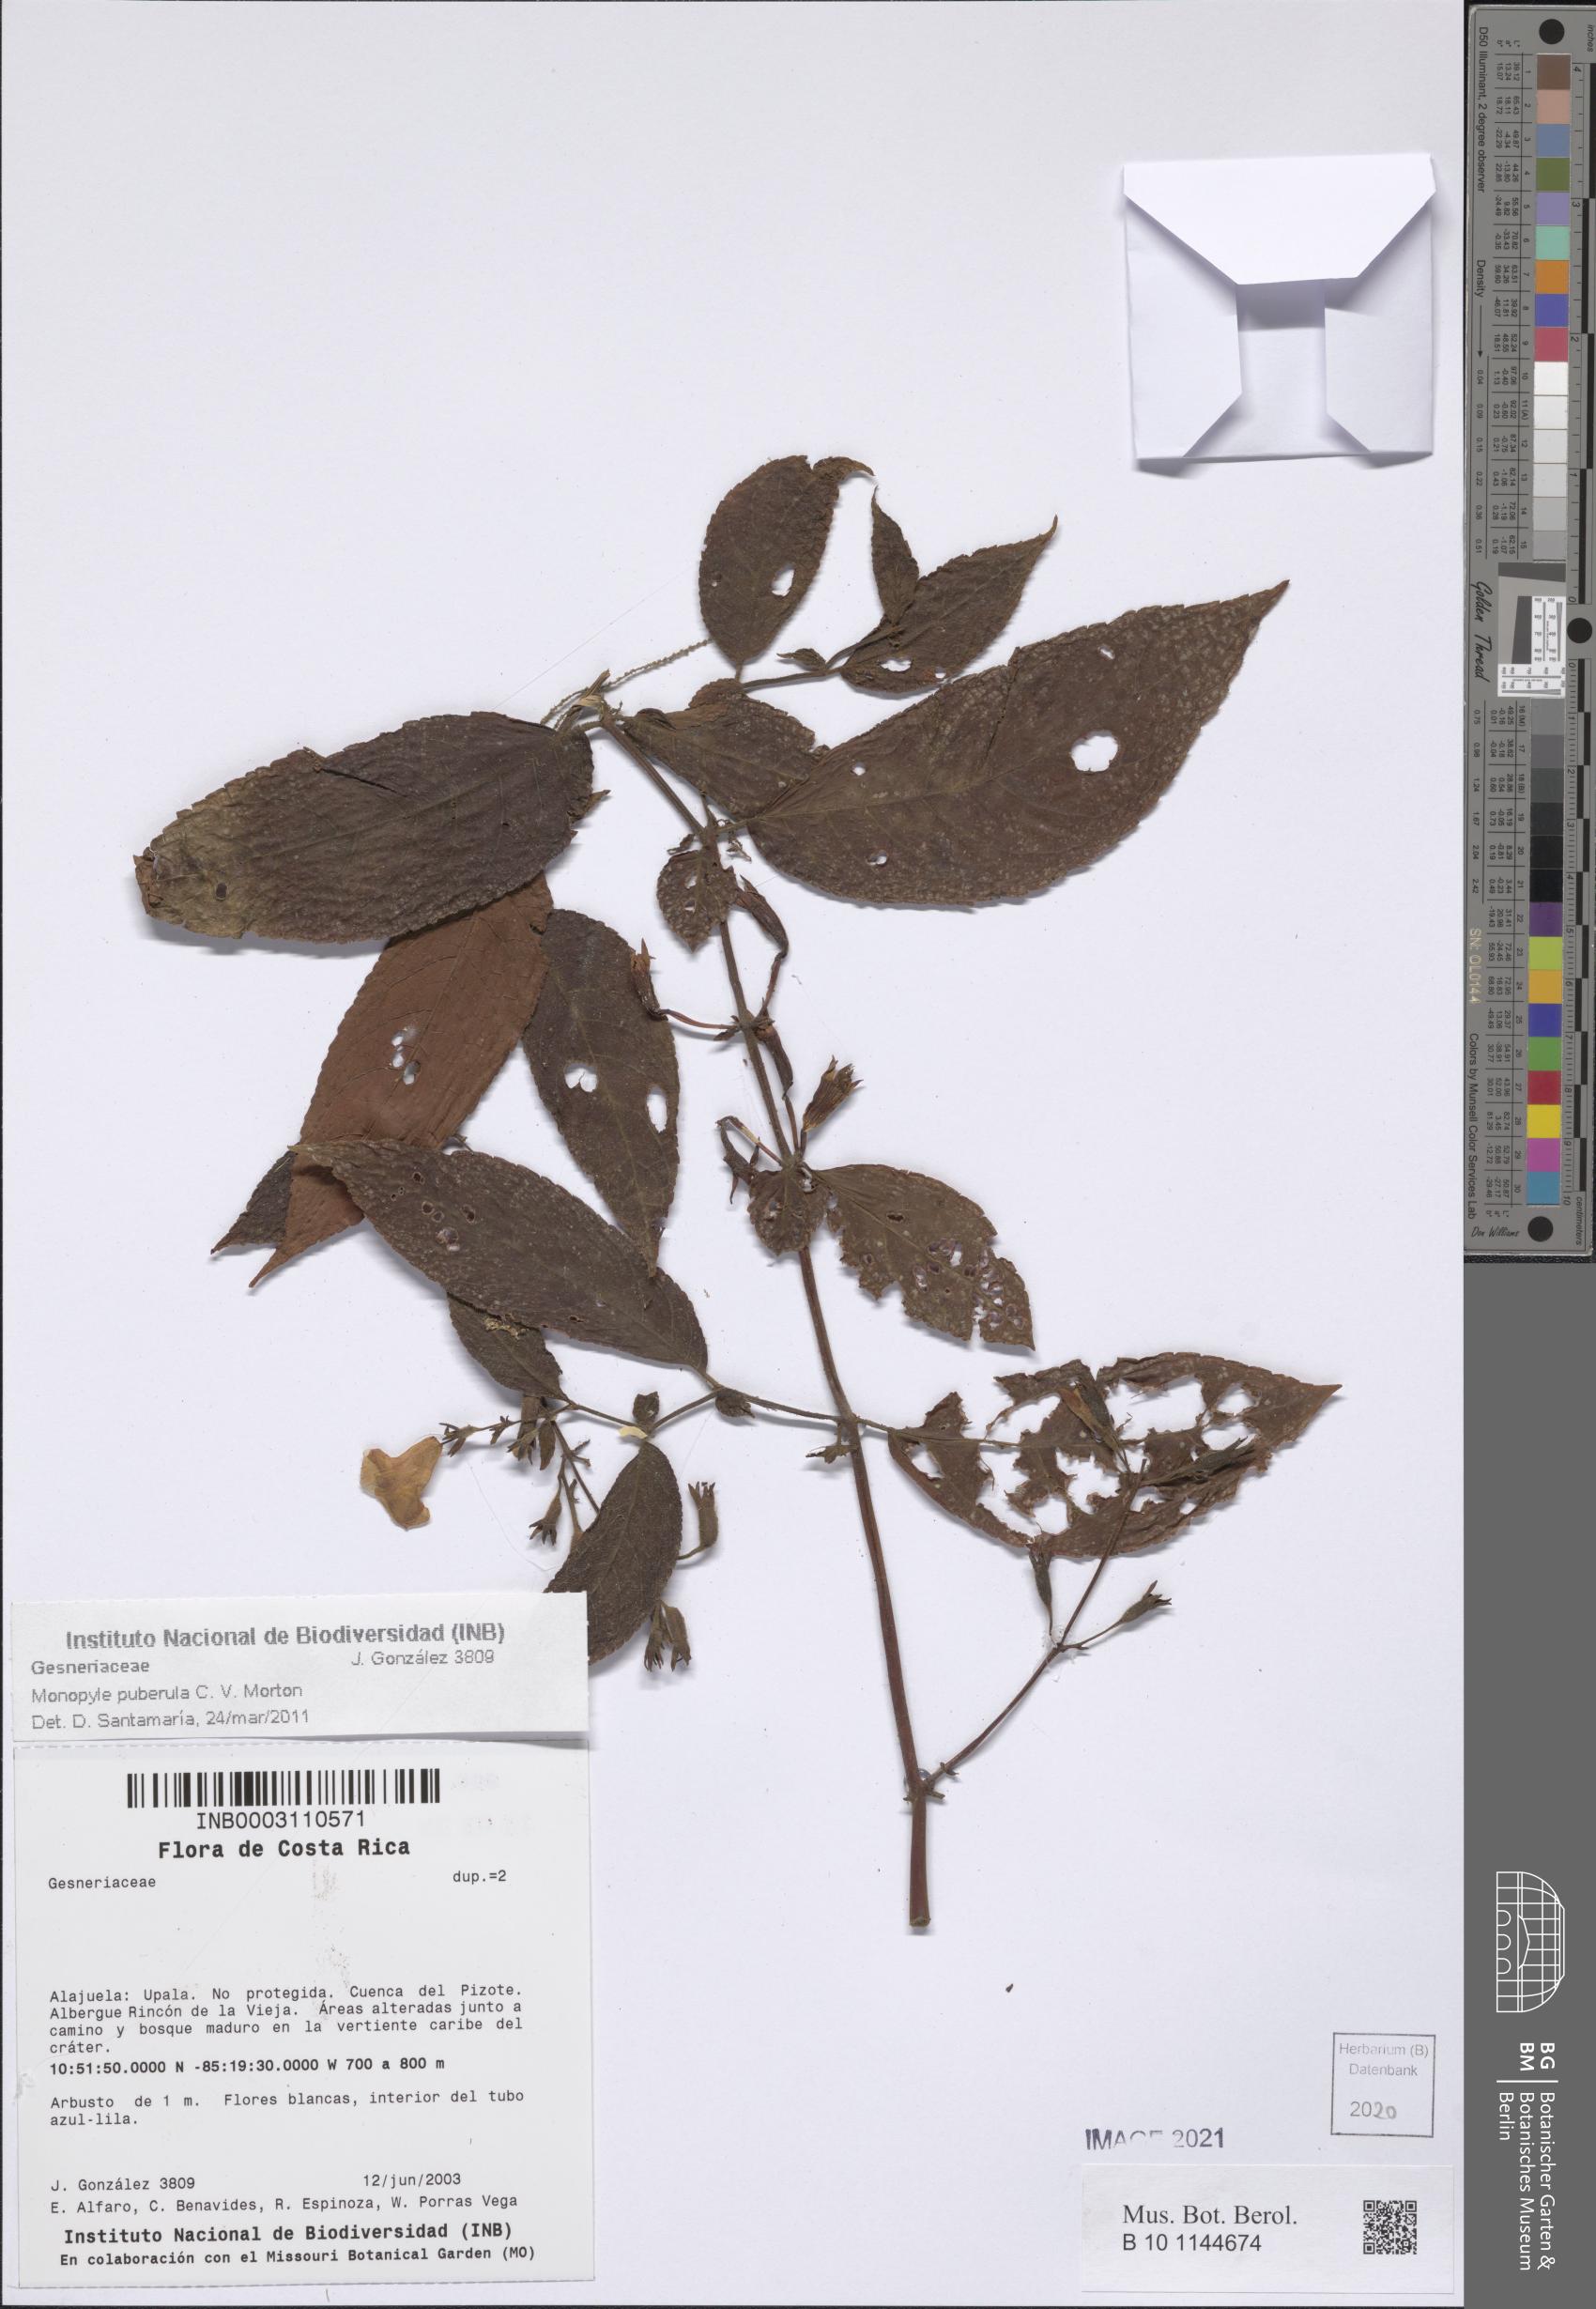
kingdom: Plantae
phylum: Tracheophyta
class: Magnoliopsida
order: Lamiales
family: Gesneriaceae
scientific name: Gesneriaceae
